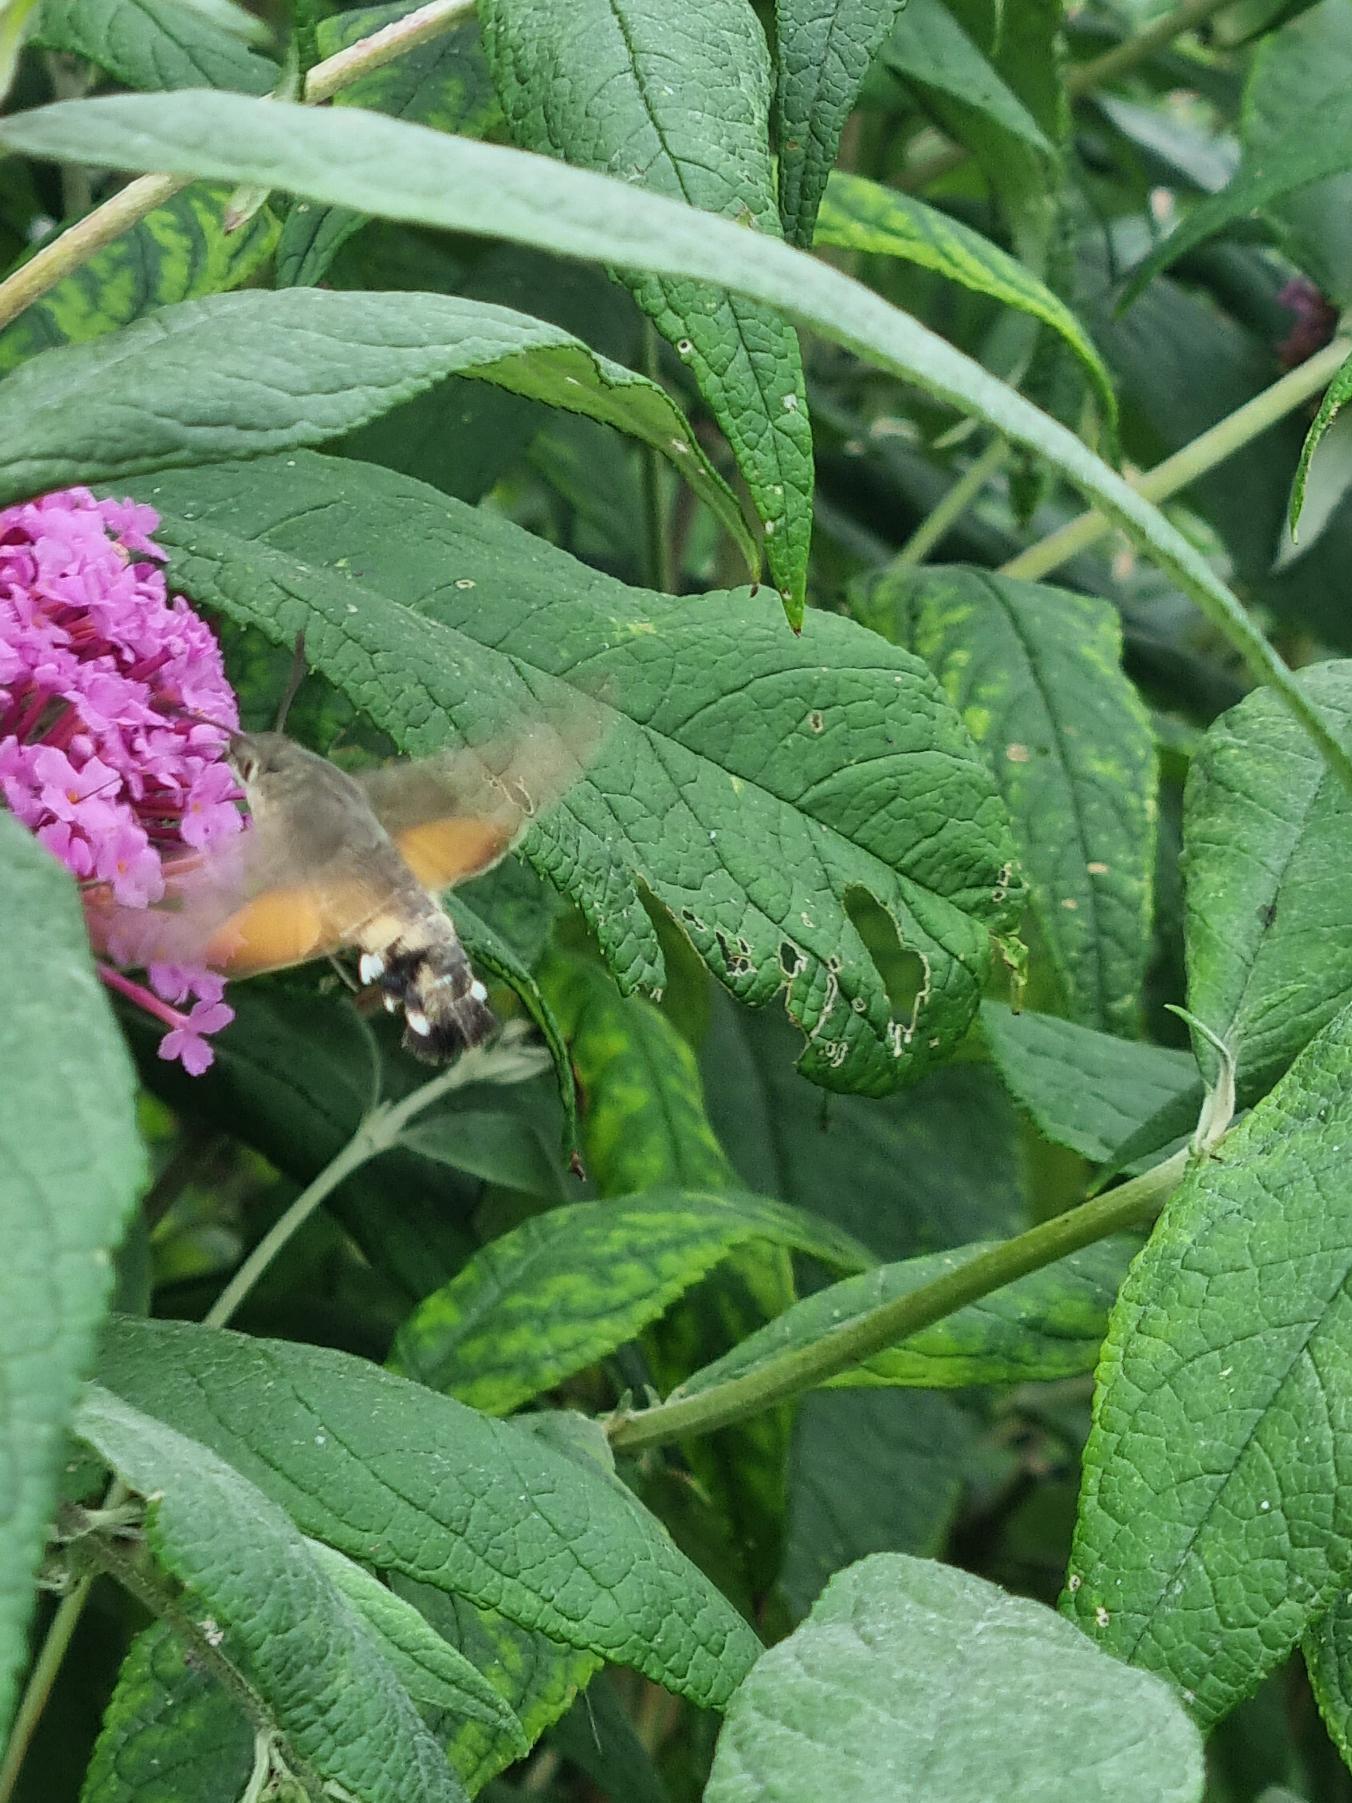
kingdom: Animalia
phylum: Arthropoda
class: Insecta
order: Lepidoptera
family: Sphingidae
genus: Macroglossum
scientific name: Macroglossum stellatarum
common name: Duehale
